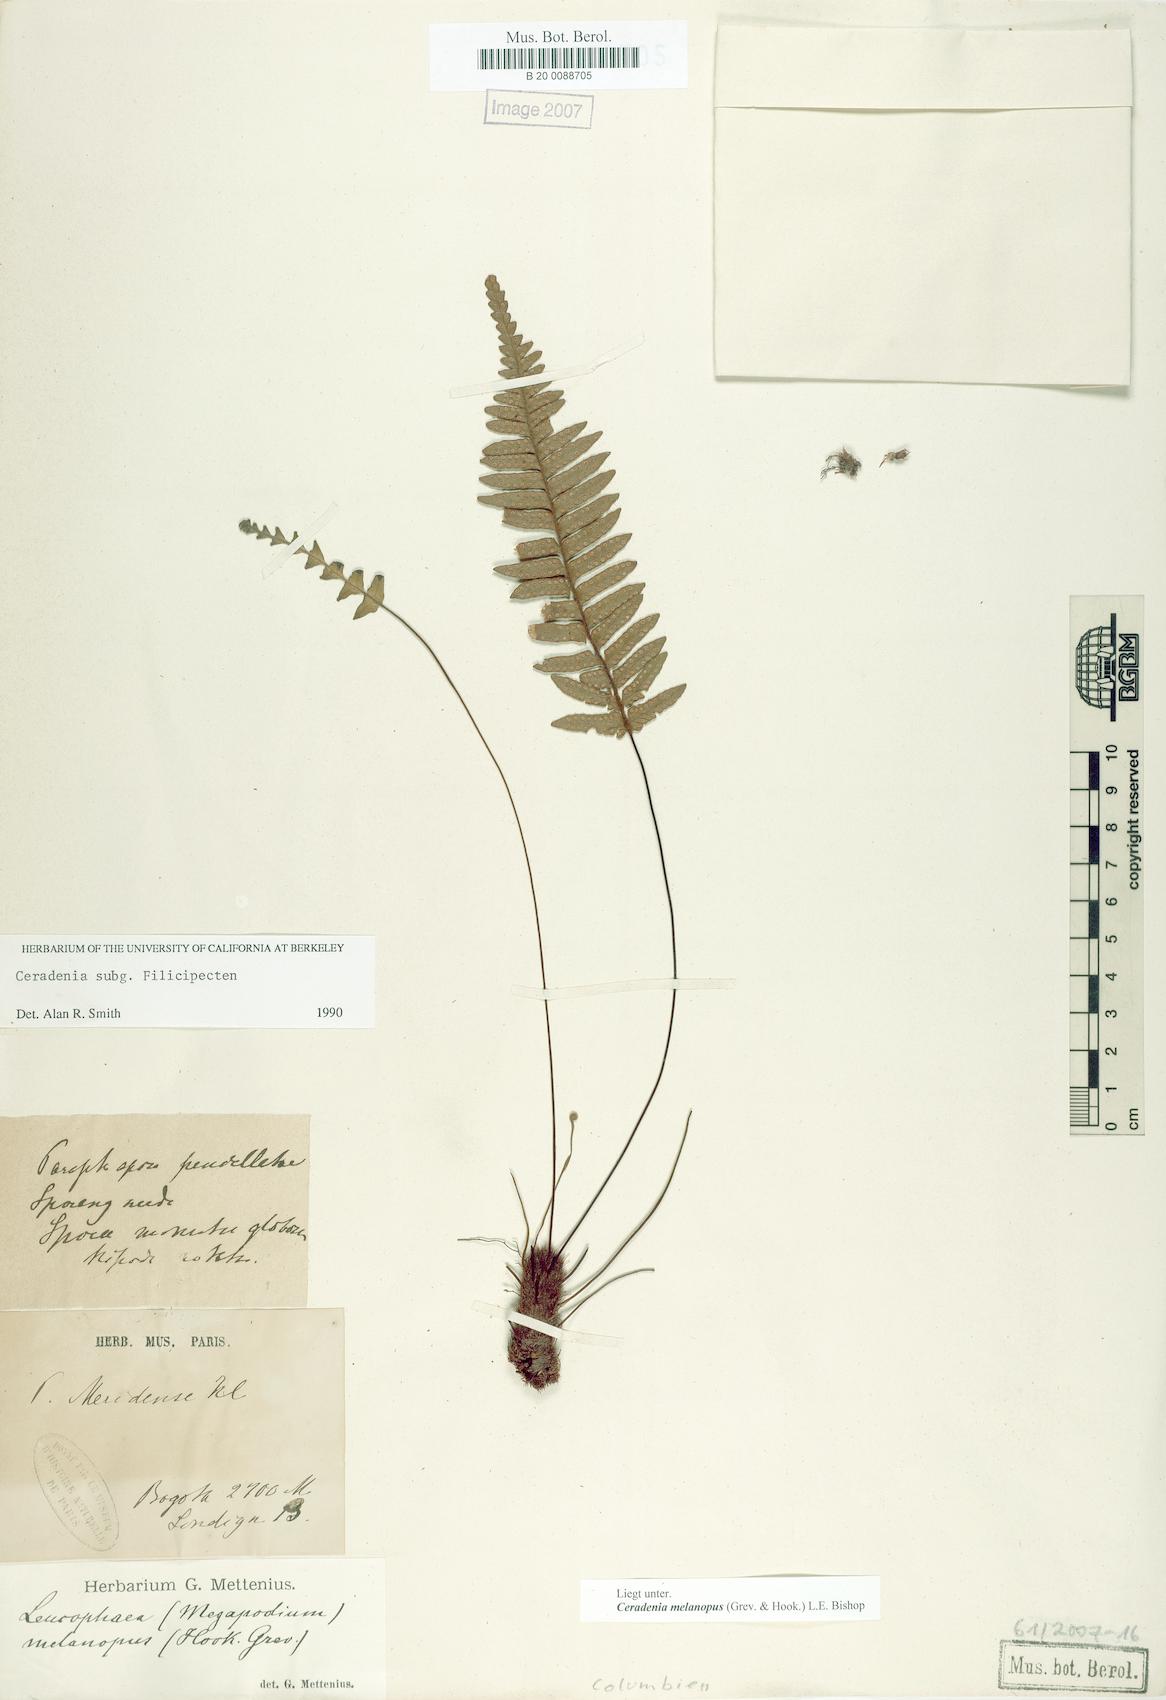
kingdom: Plantae
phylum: Tracheophyta
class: Polypodiopsida
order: Polypodiales
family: Polypodiaceae
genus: Ceradenia
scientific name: Ceradenia melanopus
